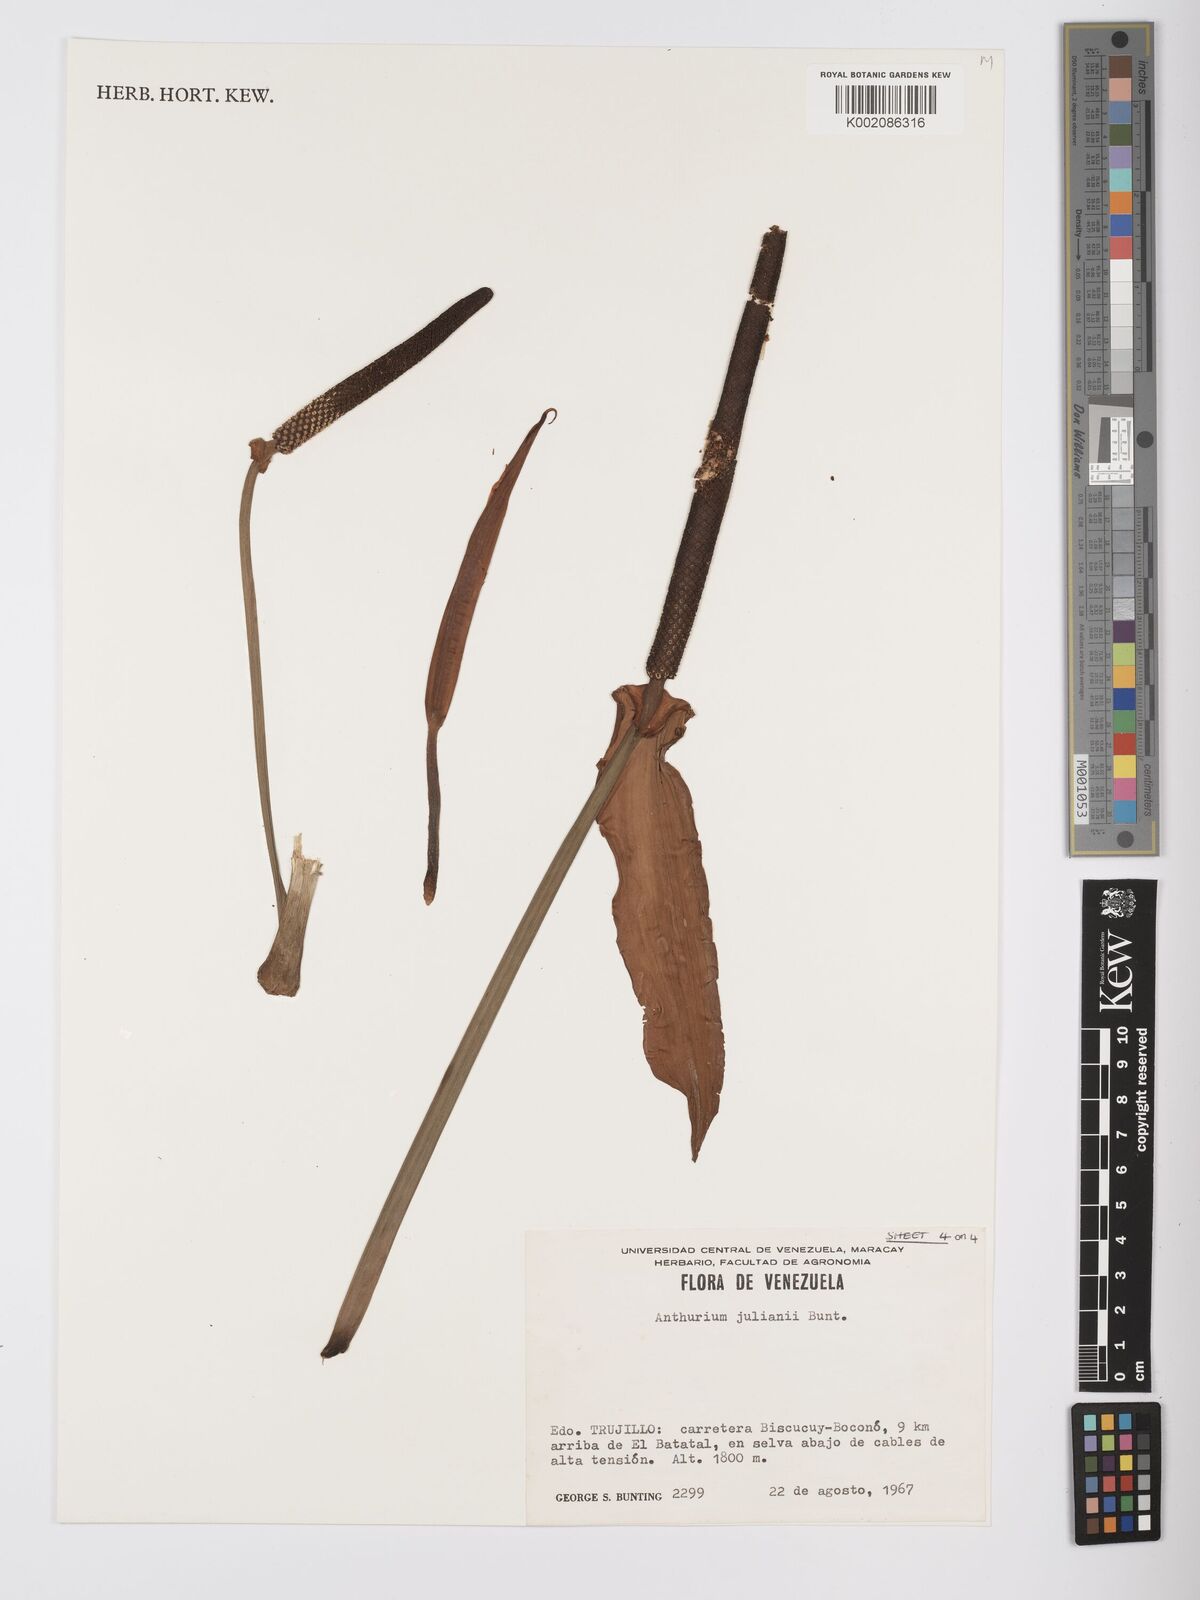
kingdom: Plantae
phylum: Tracheophyta
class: Liliopsida
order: Alismatales
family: Araceae
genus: Anthurium
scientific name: Anthurium julianii
